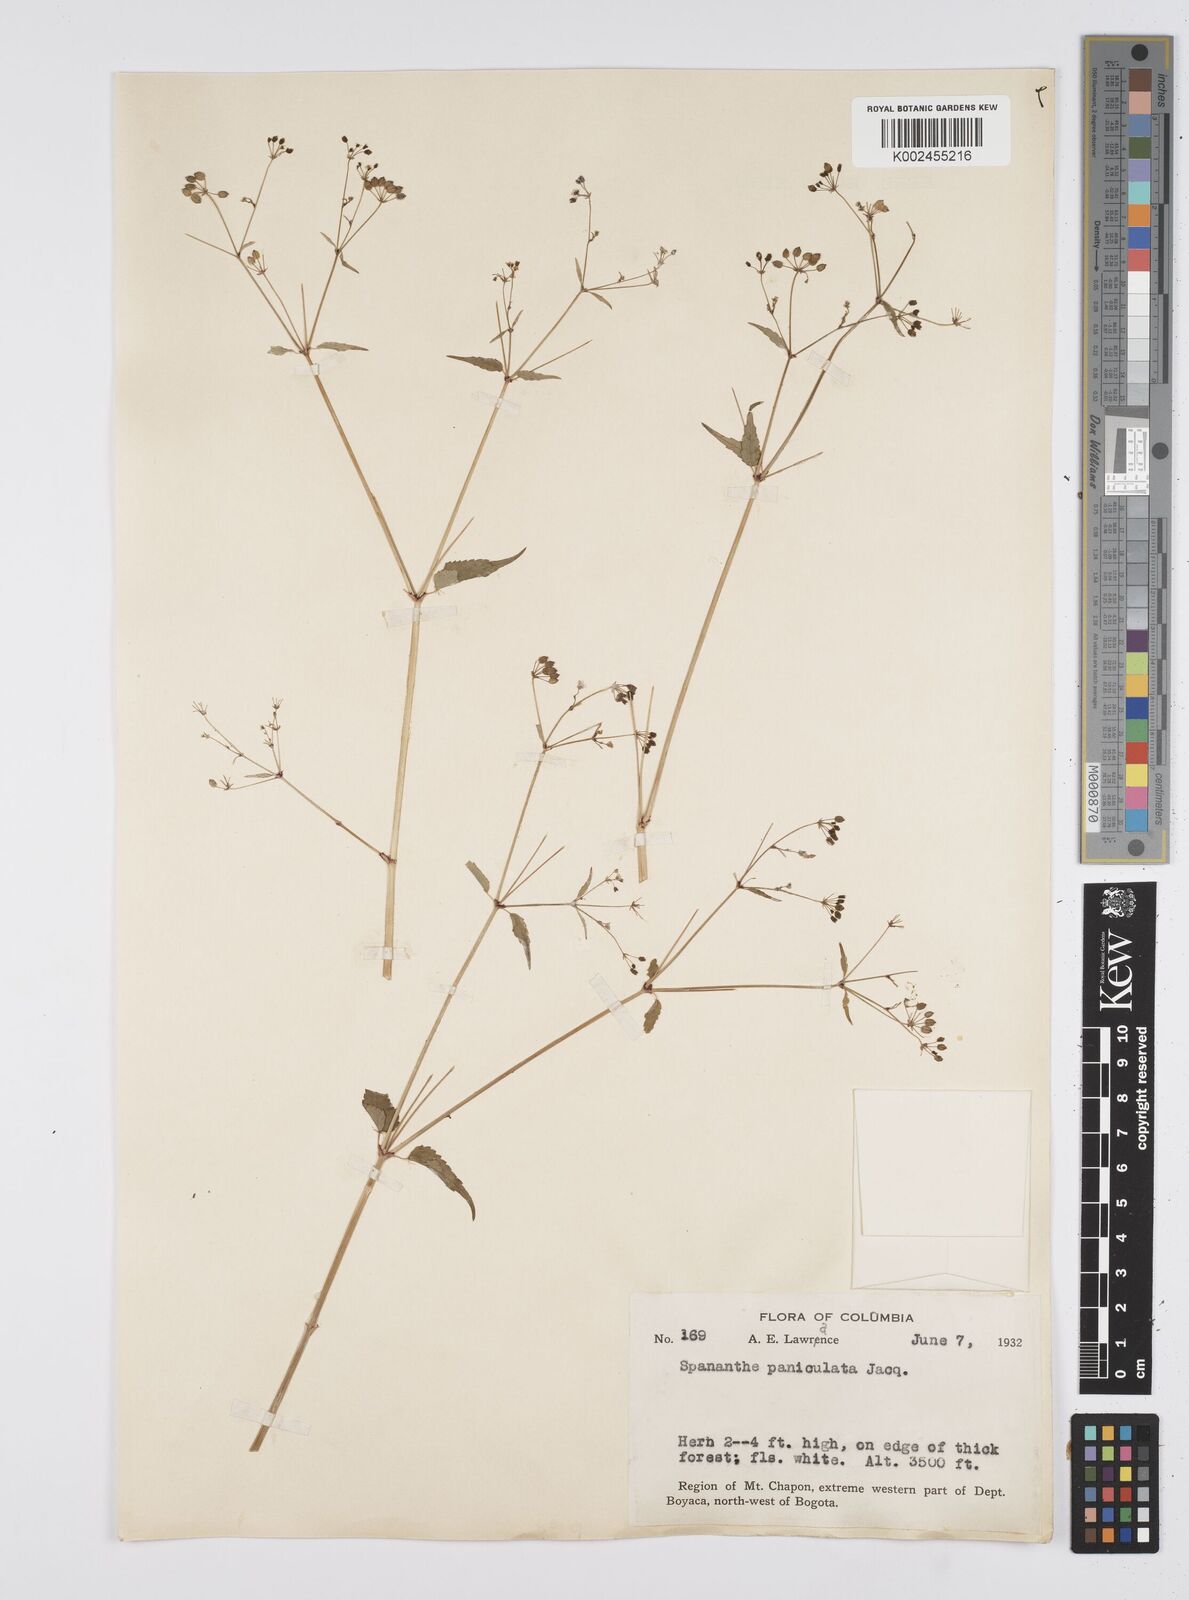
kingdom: Plantae
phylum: Tracheophyta
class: Magnoliopsida
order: Apiales
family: Apiaceae
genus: Azorella
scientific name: Azorella
